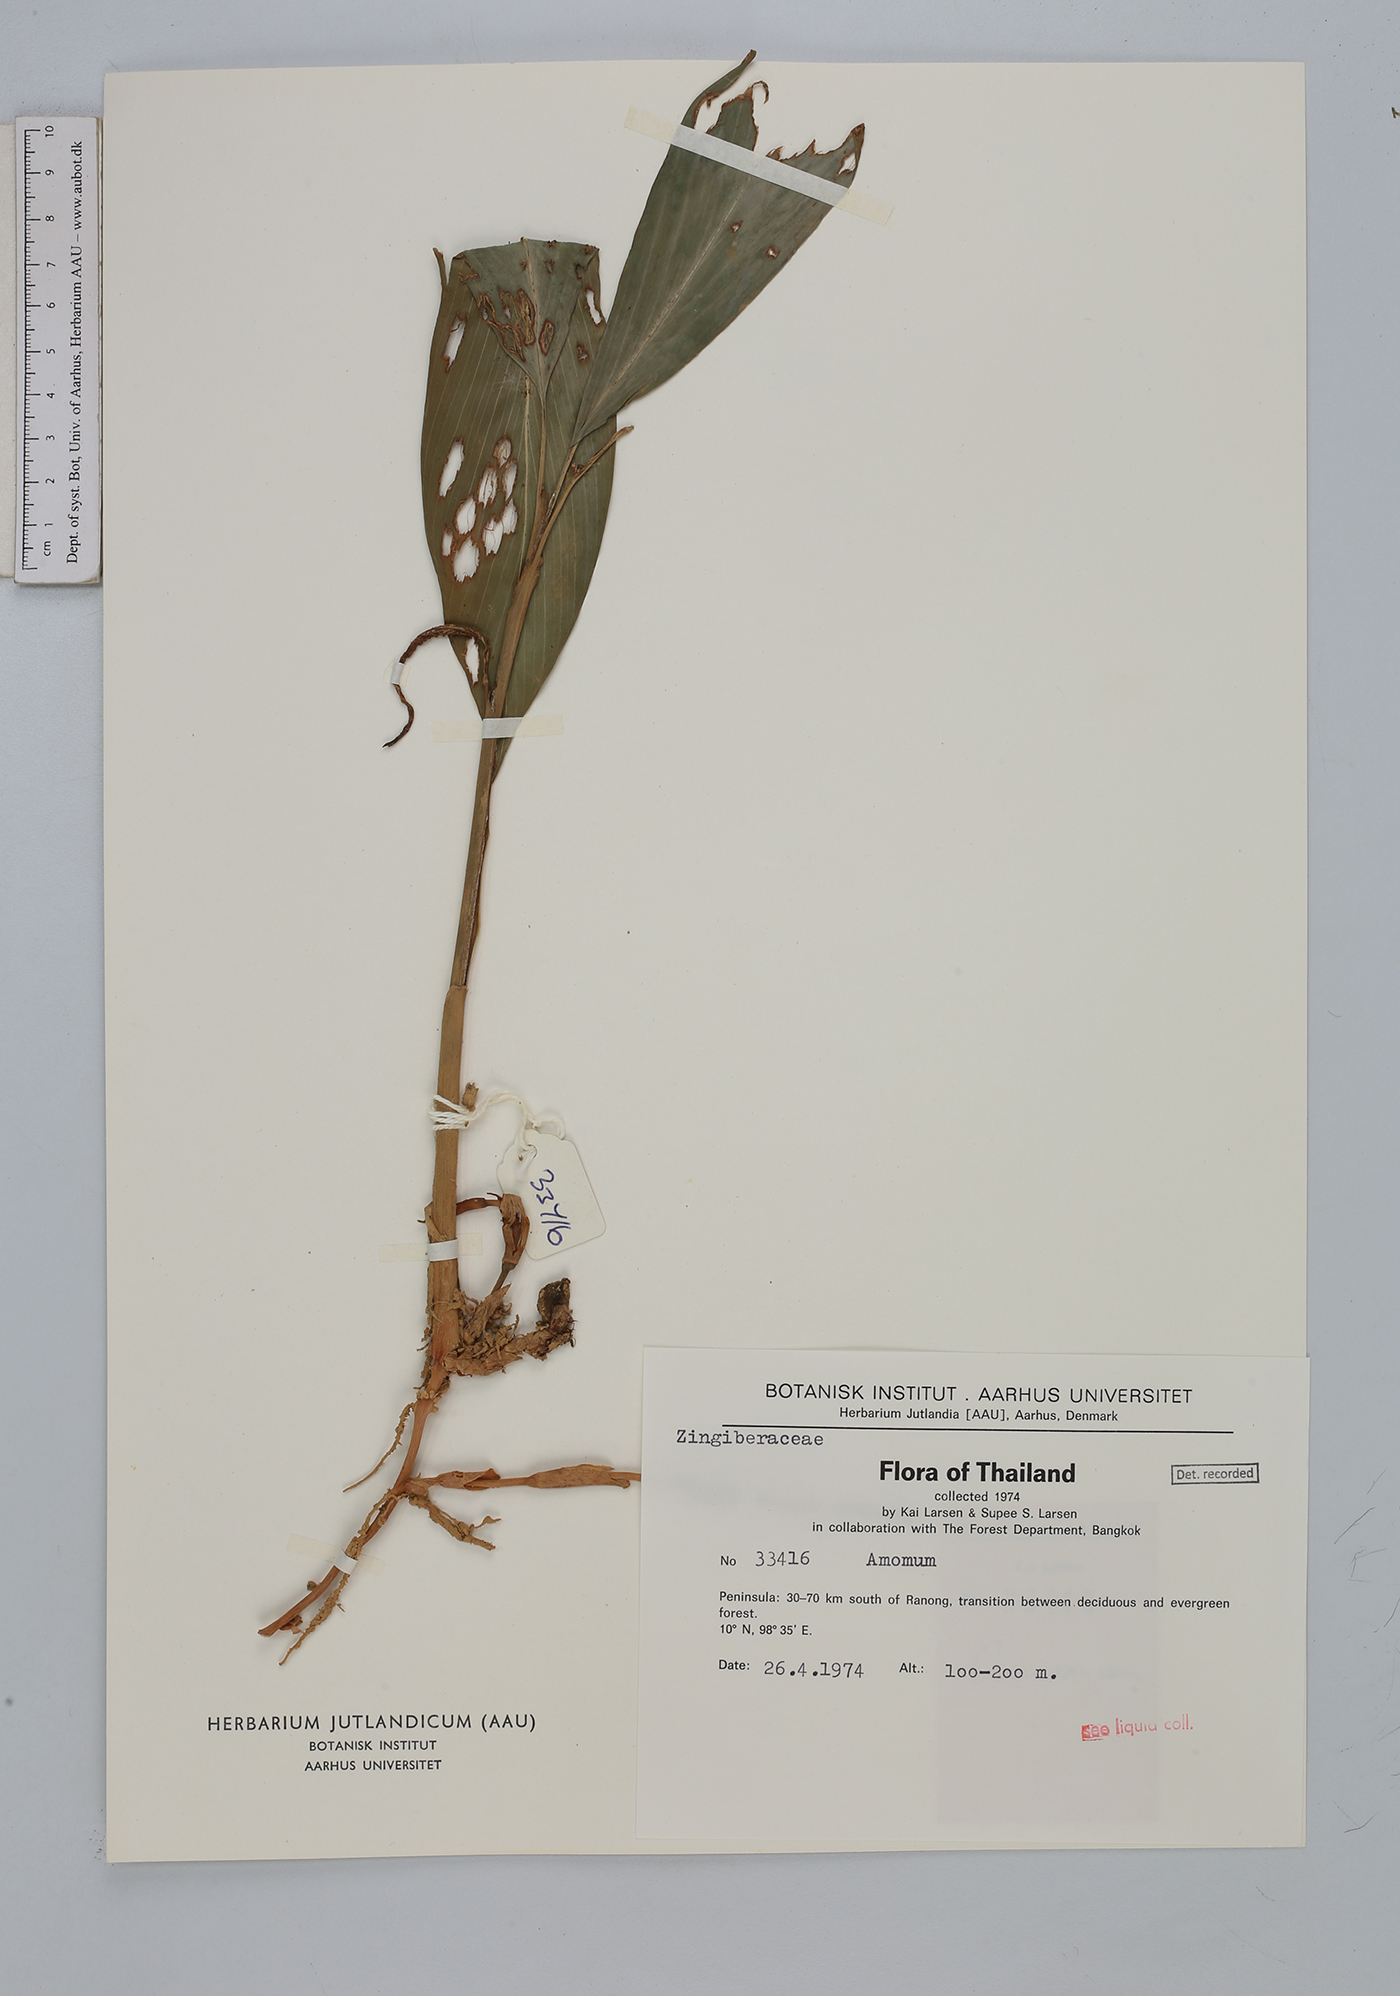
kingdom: Plantae
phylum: Tracheophyta
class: Liliopsida
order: Zingiberales
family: Zingiberaceae
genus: Amomum
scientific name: Amomum
